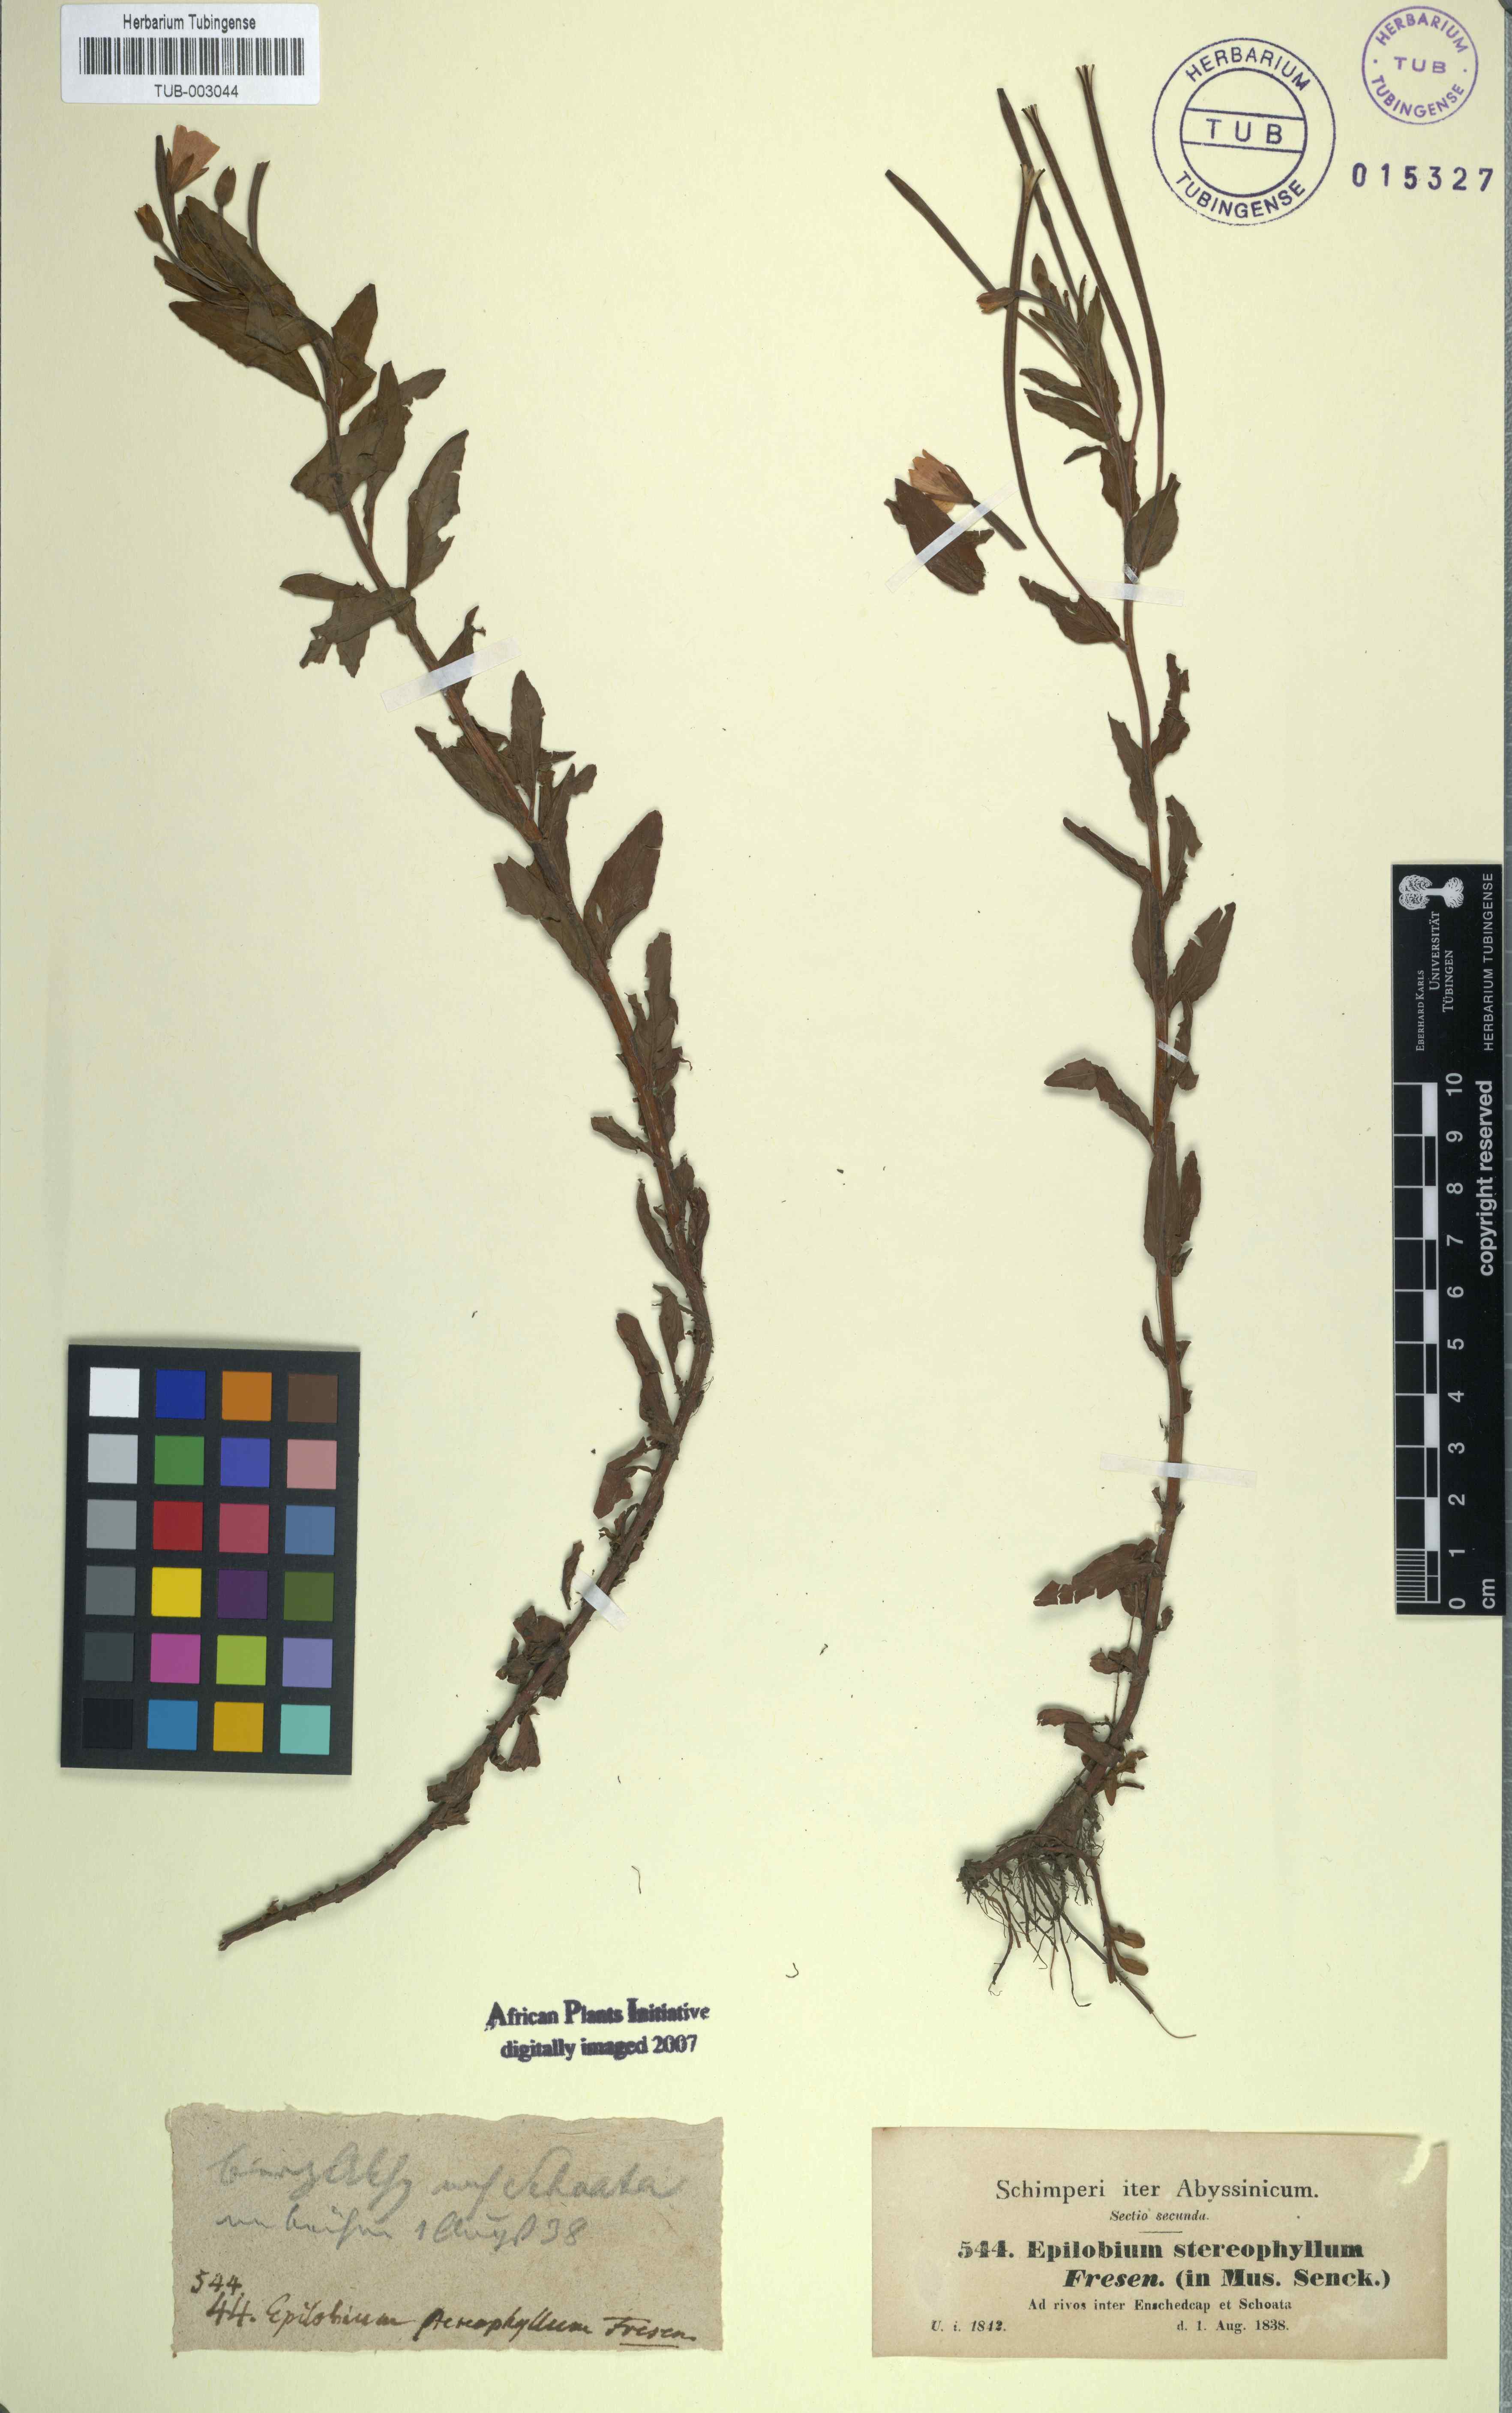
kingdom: Plantae
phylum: Tracheophyta
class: Magnoliopsida
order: Myrtales
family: Onagraceae
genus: Epilobium
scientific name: Epilobium stereophyllum
